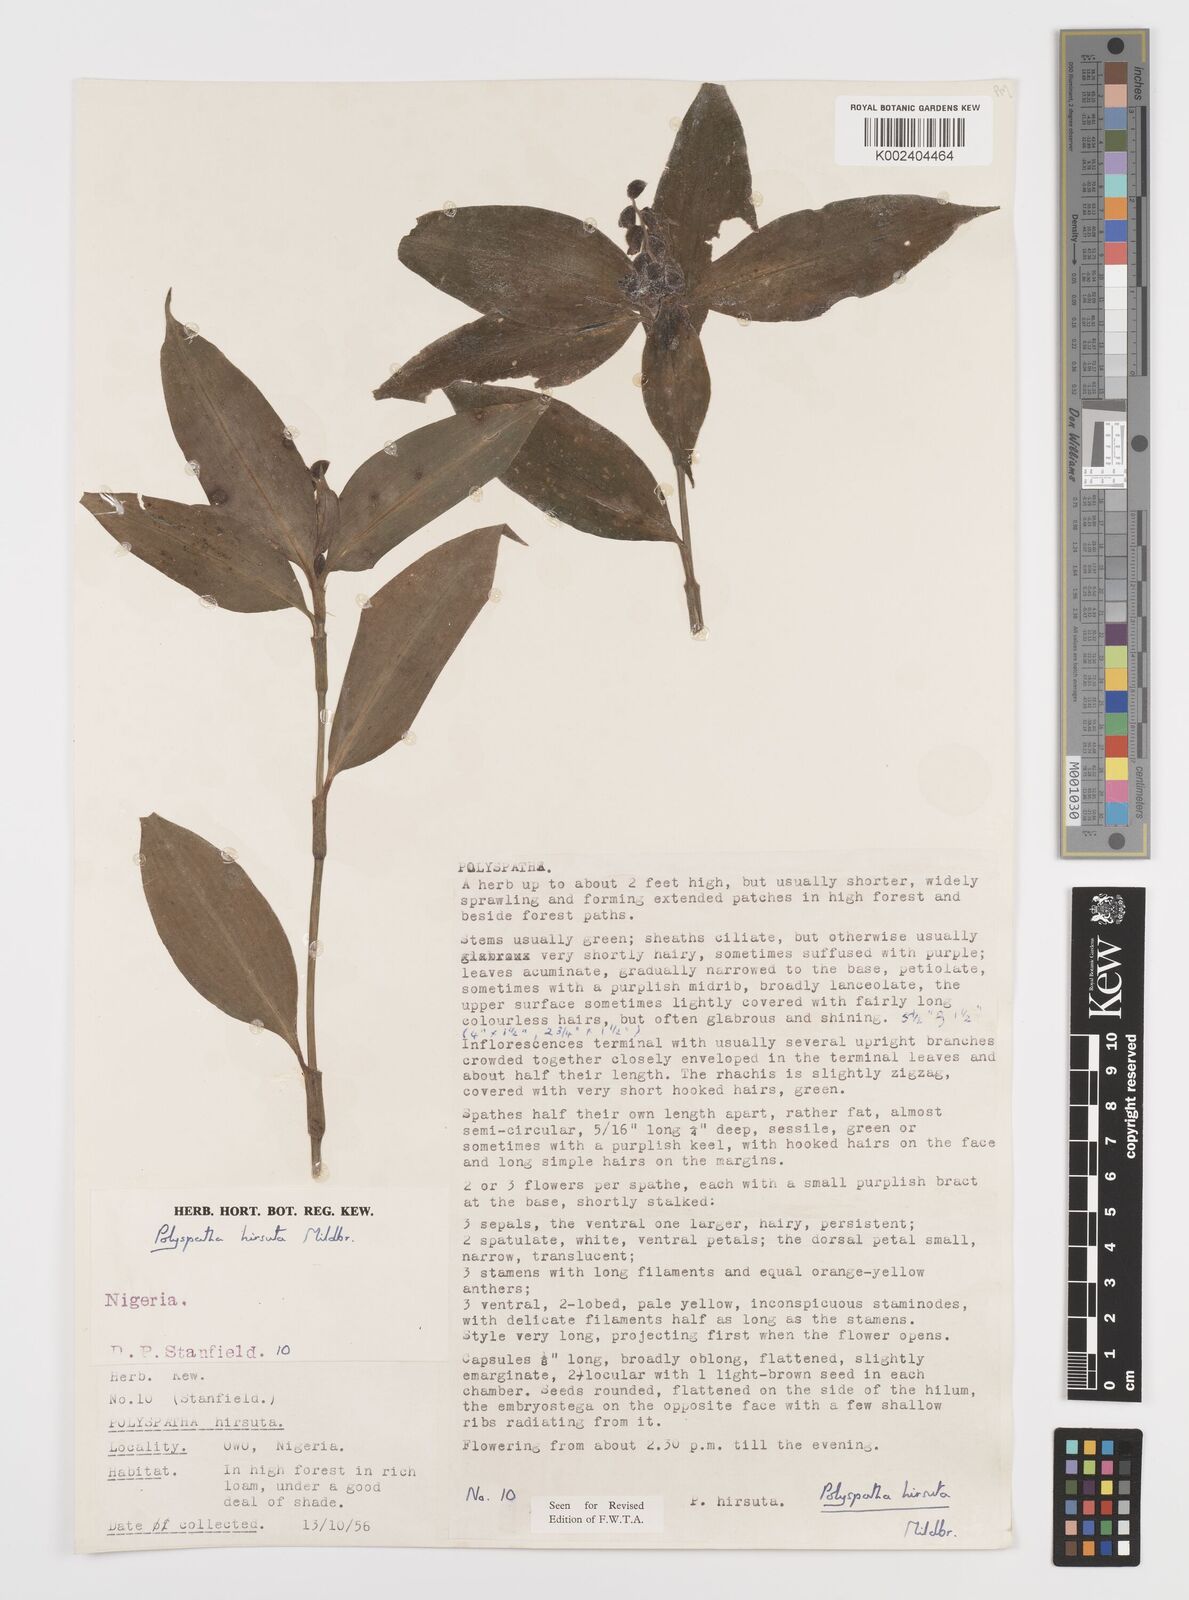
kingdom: Plantae
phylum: Tracheophyta
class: Liliopsida
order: Commelinales
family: Commelinaceae
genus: Polyspatha
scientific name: Polyspatha hirsuta
